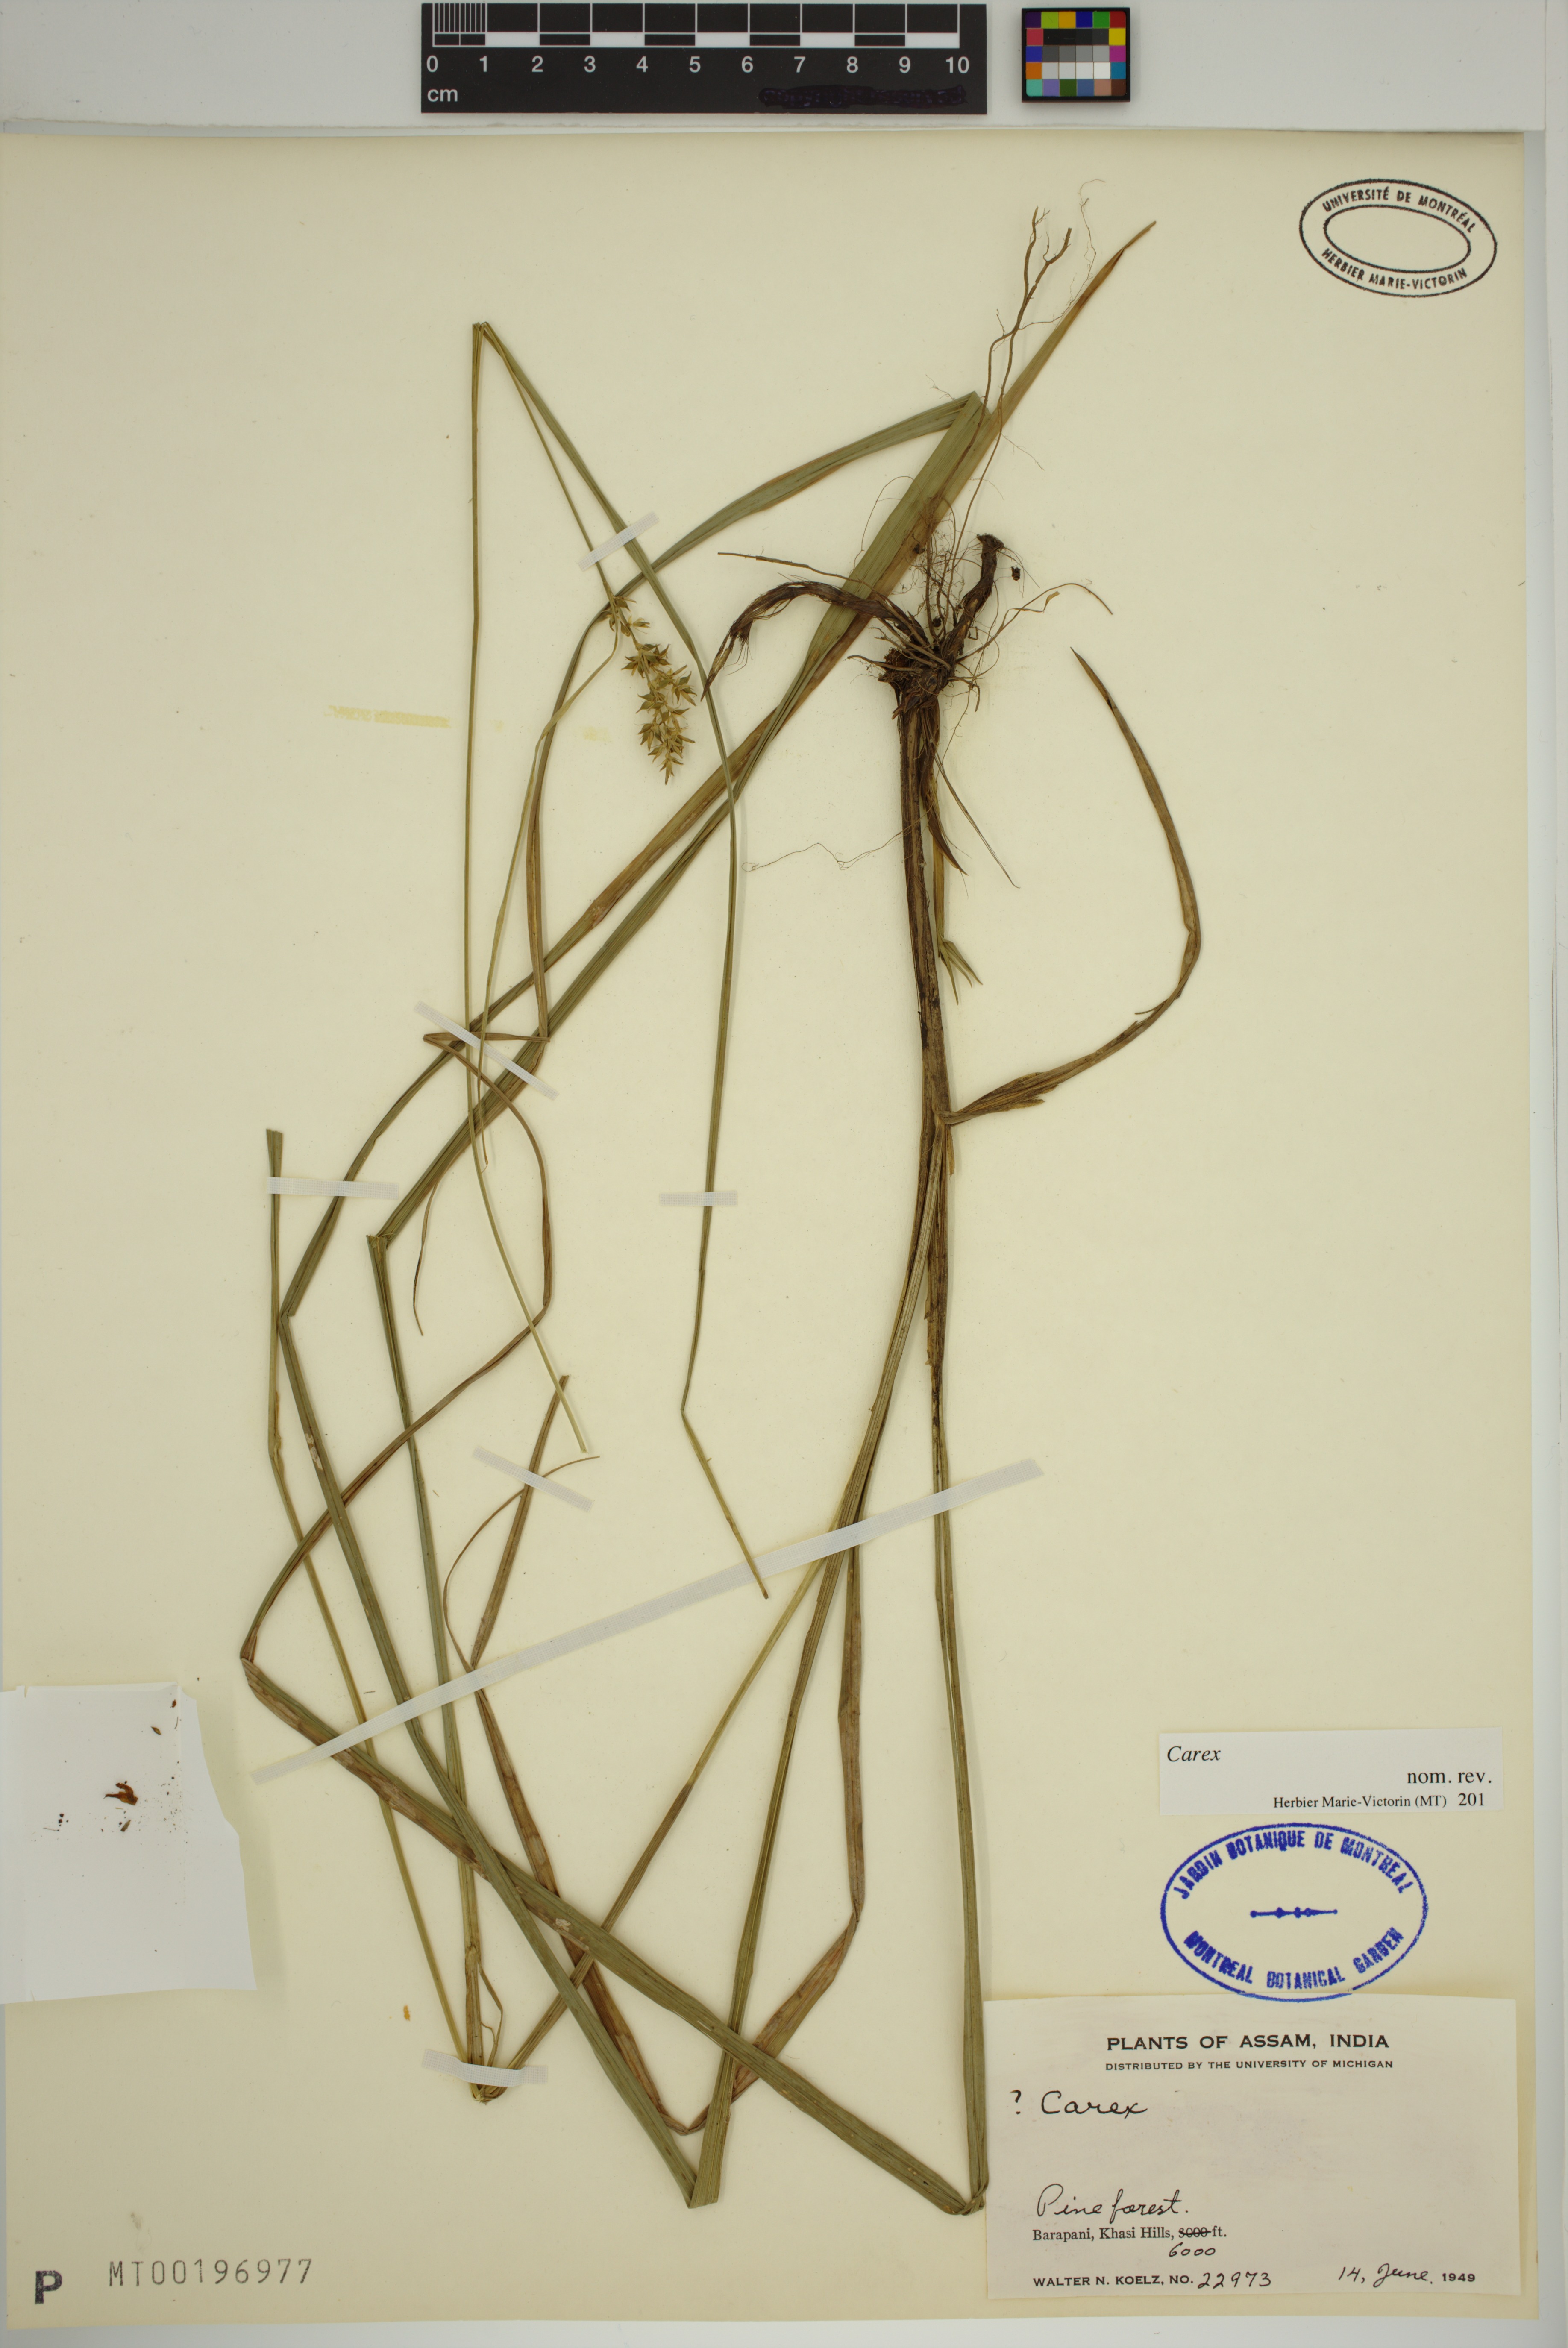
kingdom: Plantae
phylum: Tracheophyta
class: Liliopsida
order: Poales
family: Cyperaceae
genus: Carex
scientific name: Carex
